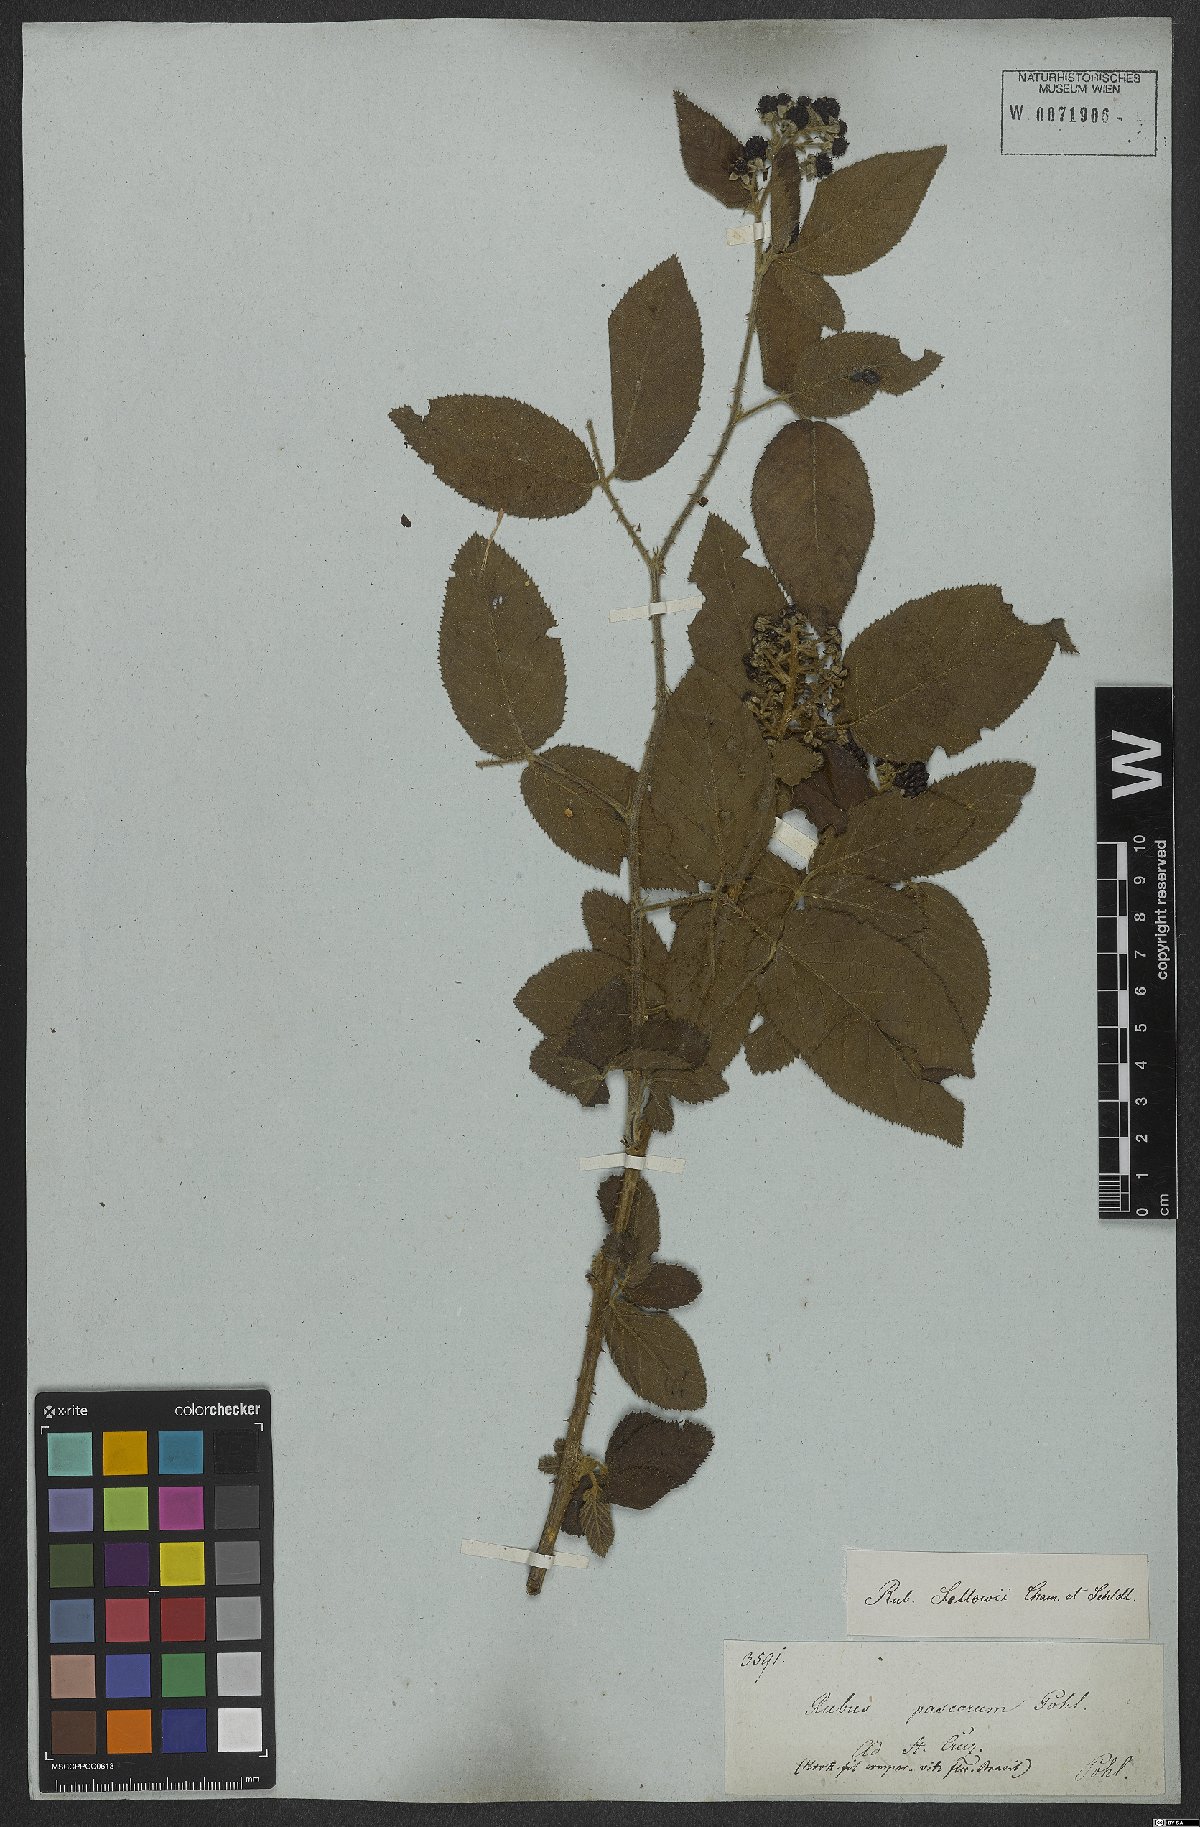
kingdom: Plantae
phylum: Tracheophyta
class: Magnoliopsida
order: Rosales
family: Rosaceae
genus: Rubus
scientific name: Rubus sellowii
